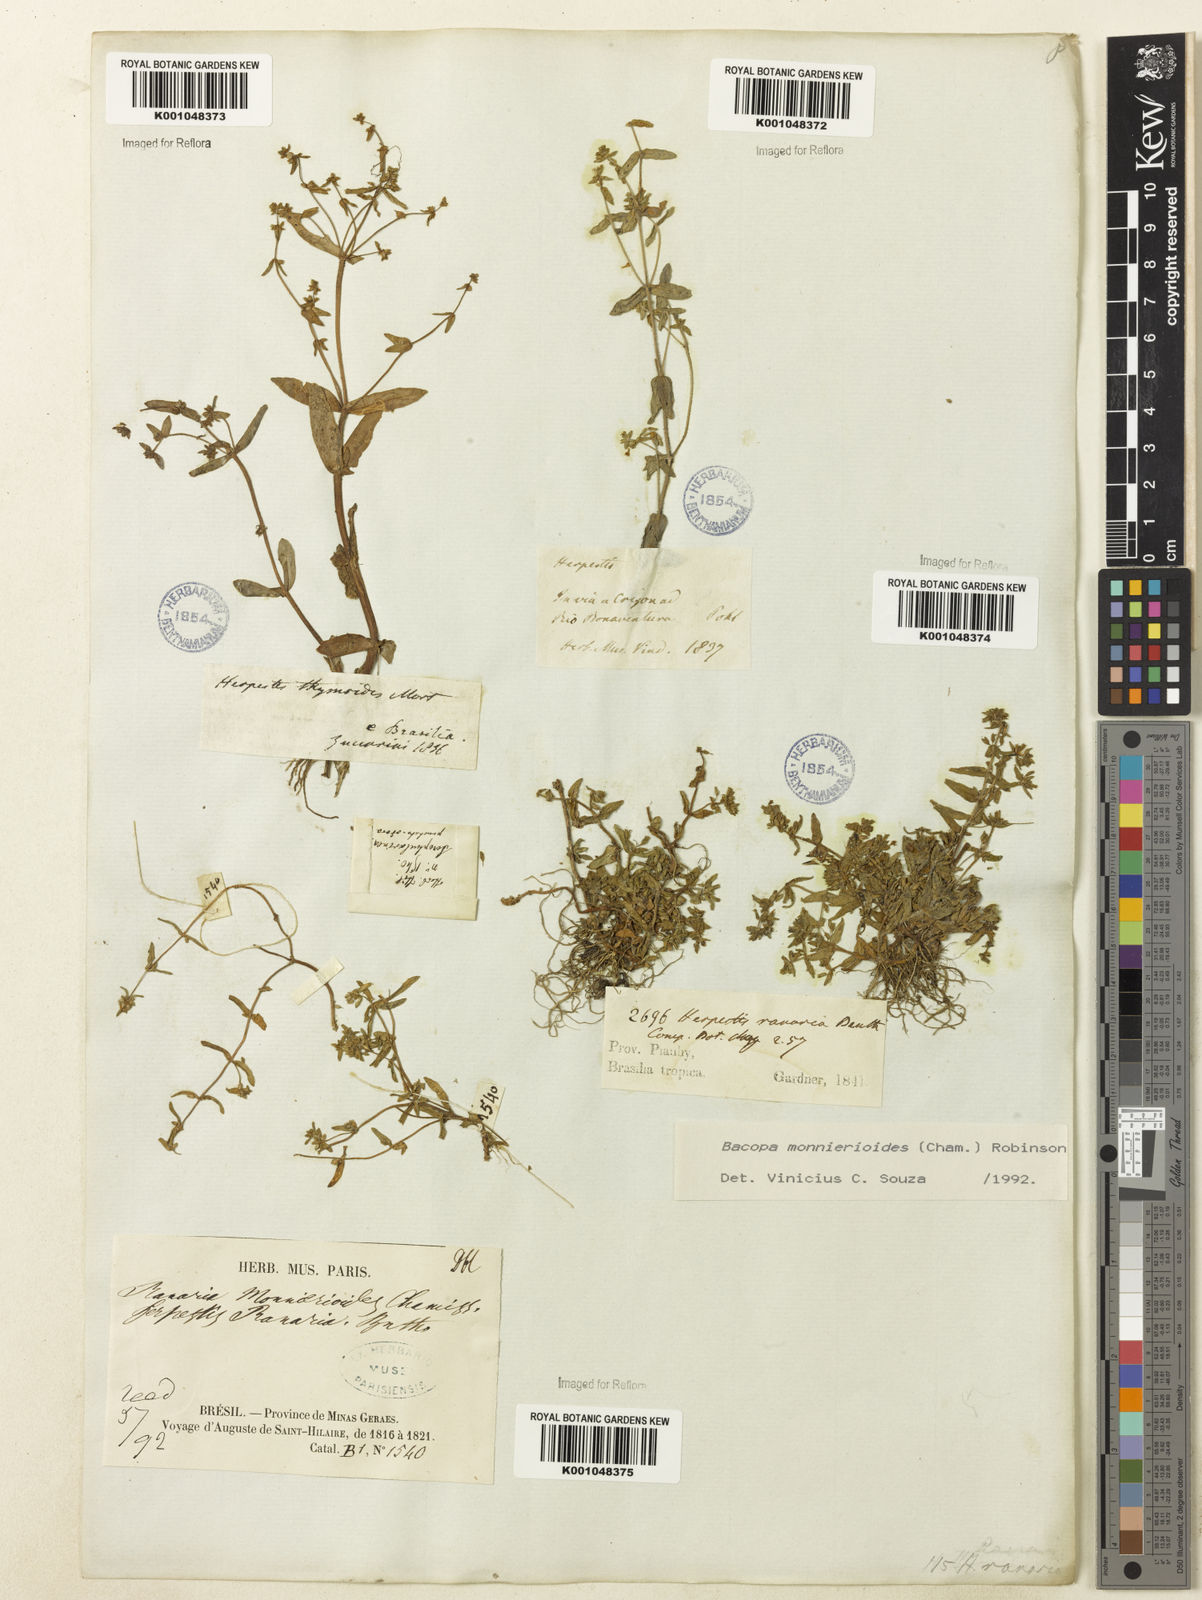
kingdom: Plantae
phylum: Tracheophyta
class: Magnoliopsida
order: Lamiales
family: Plantaginaceae
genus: Bacopa
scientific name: Bacopa monnierioides
